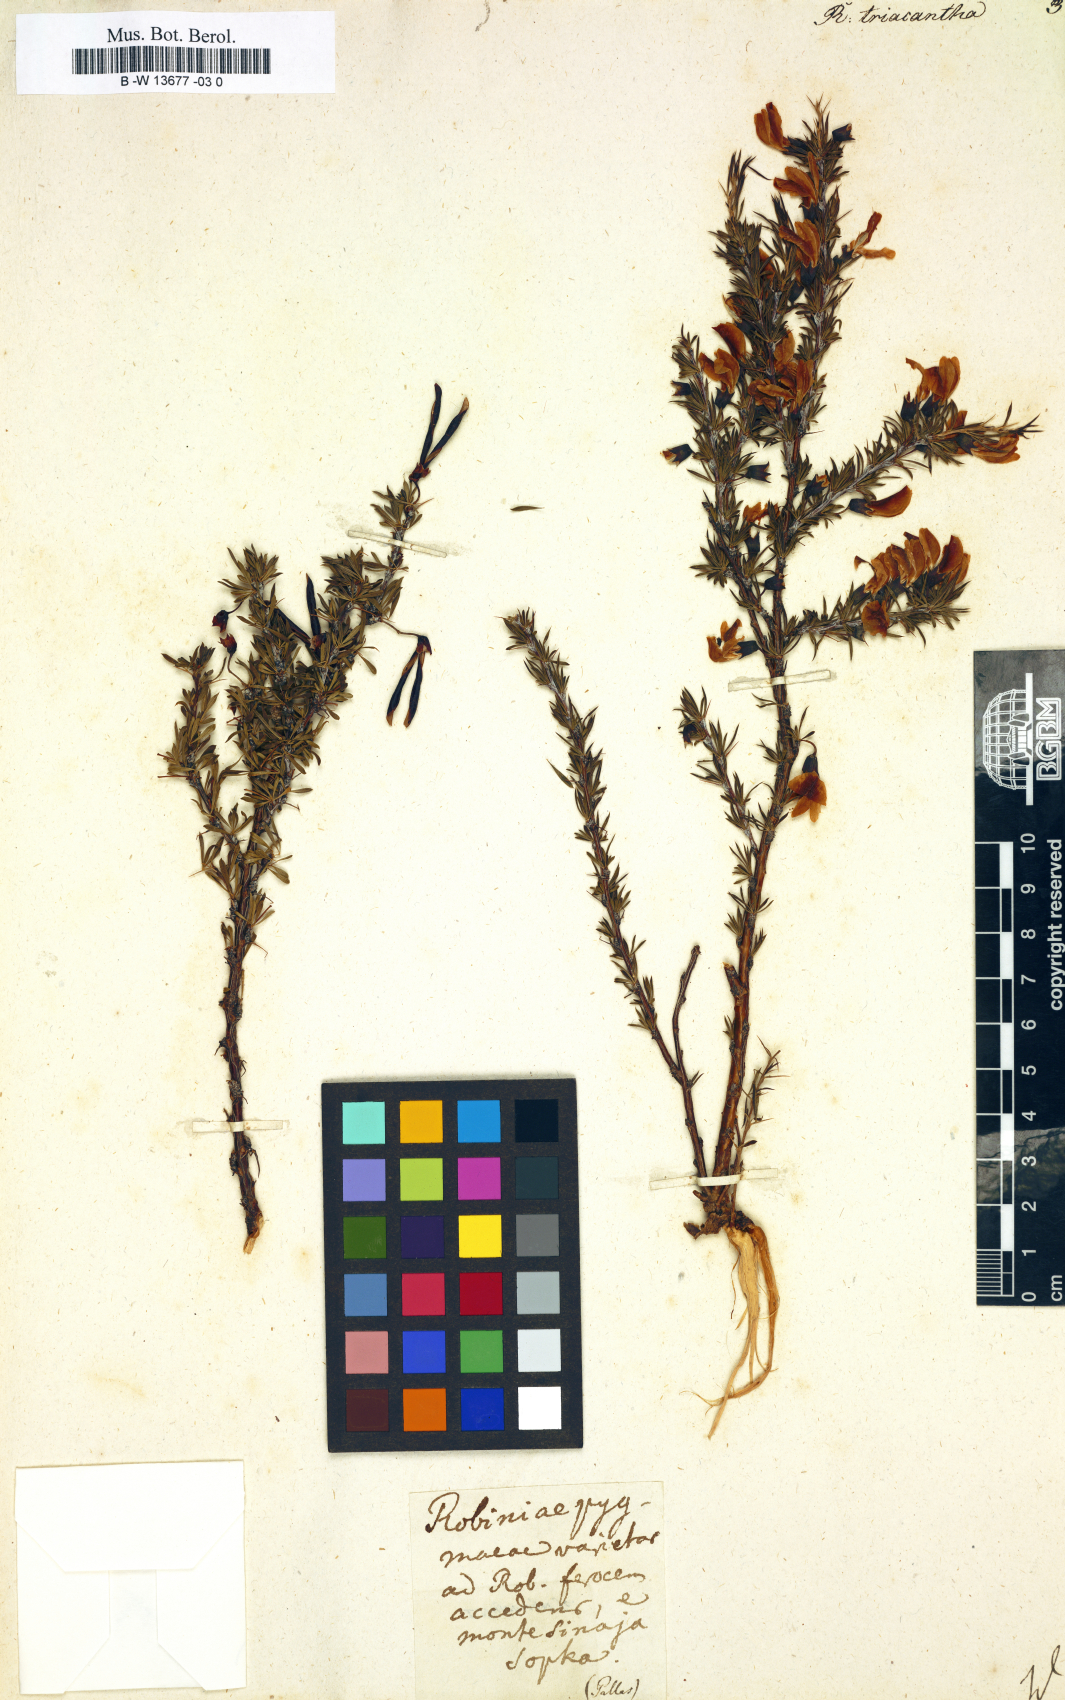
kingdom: Plantae
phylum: Tracheophyta
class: Magnoliopsida
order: Fabales
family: Fabaceae
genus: Robinia
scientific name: Robinia
